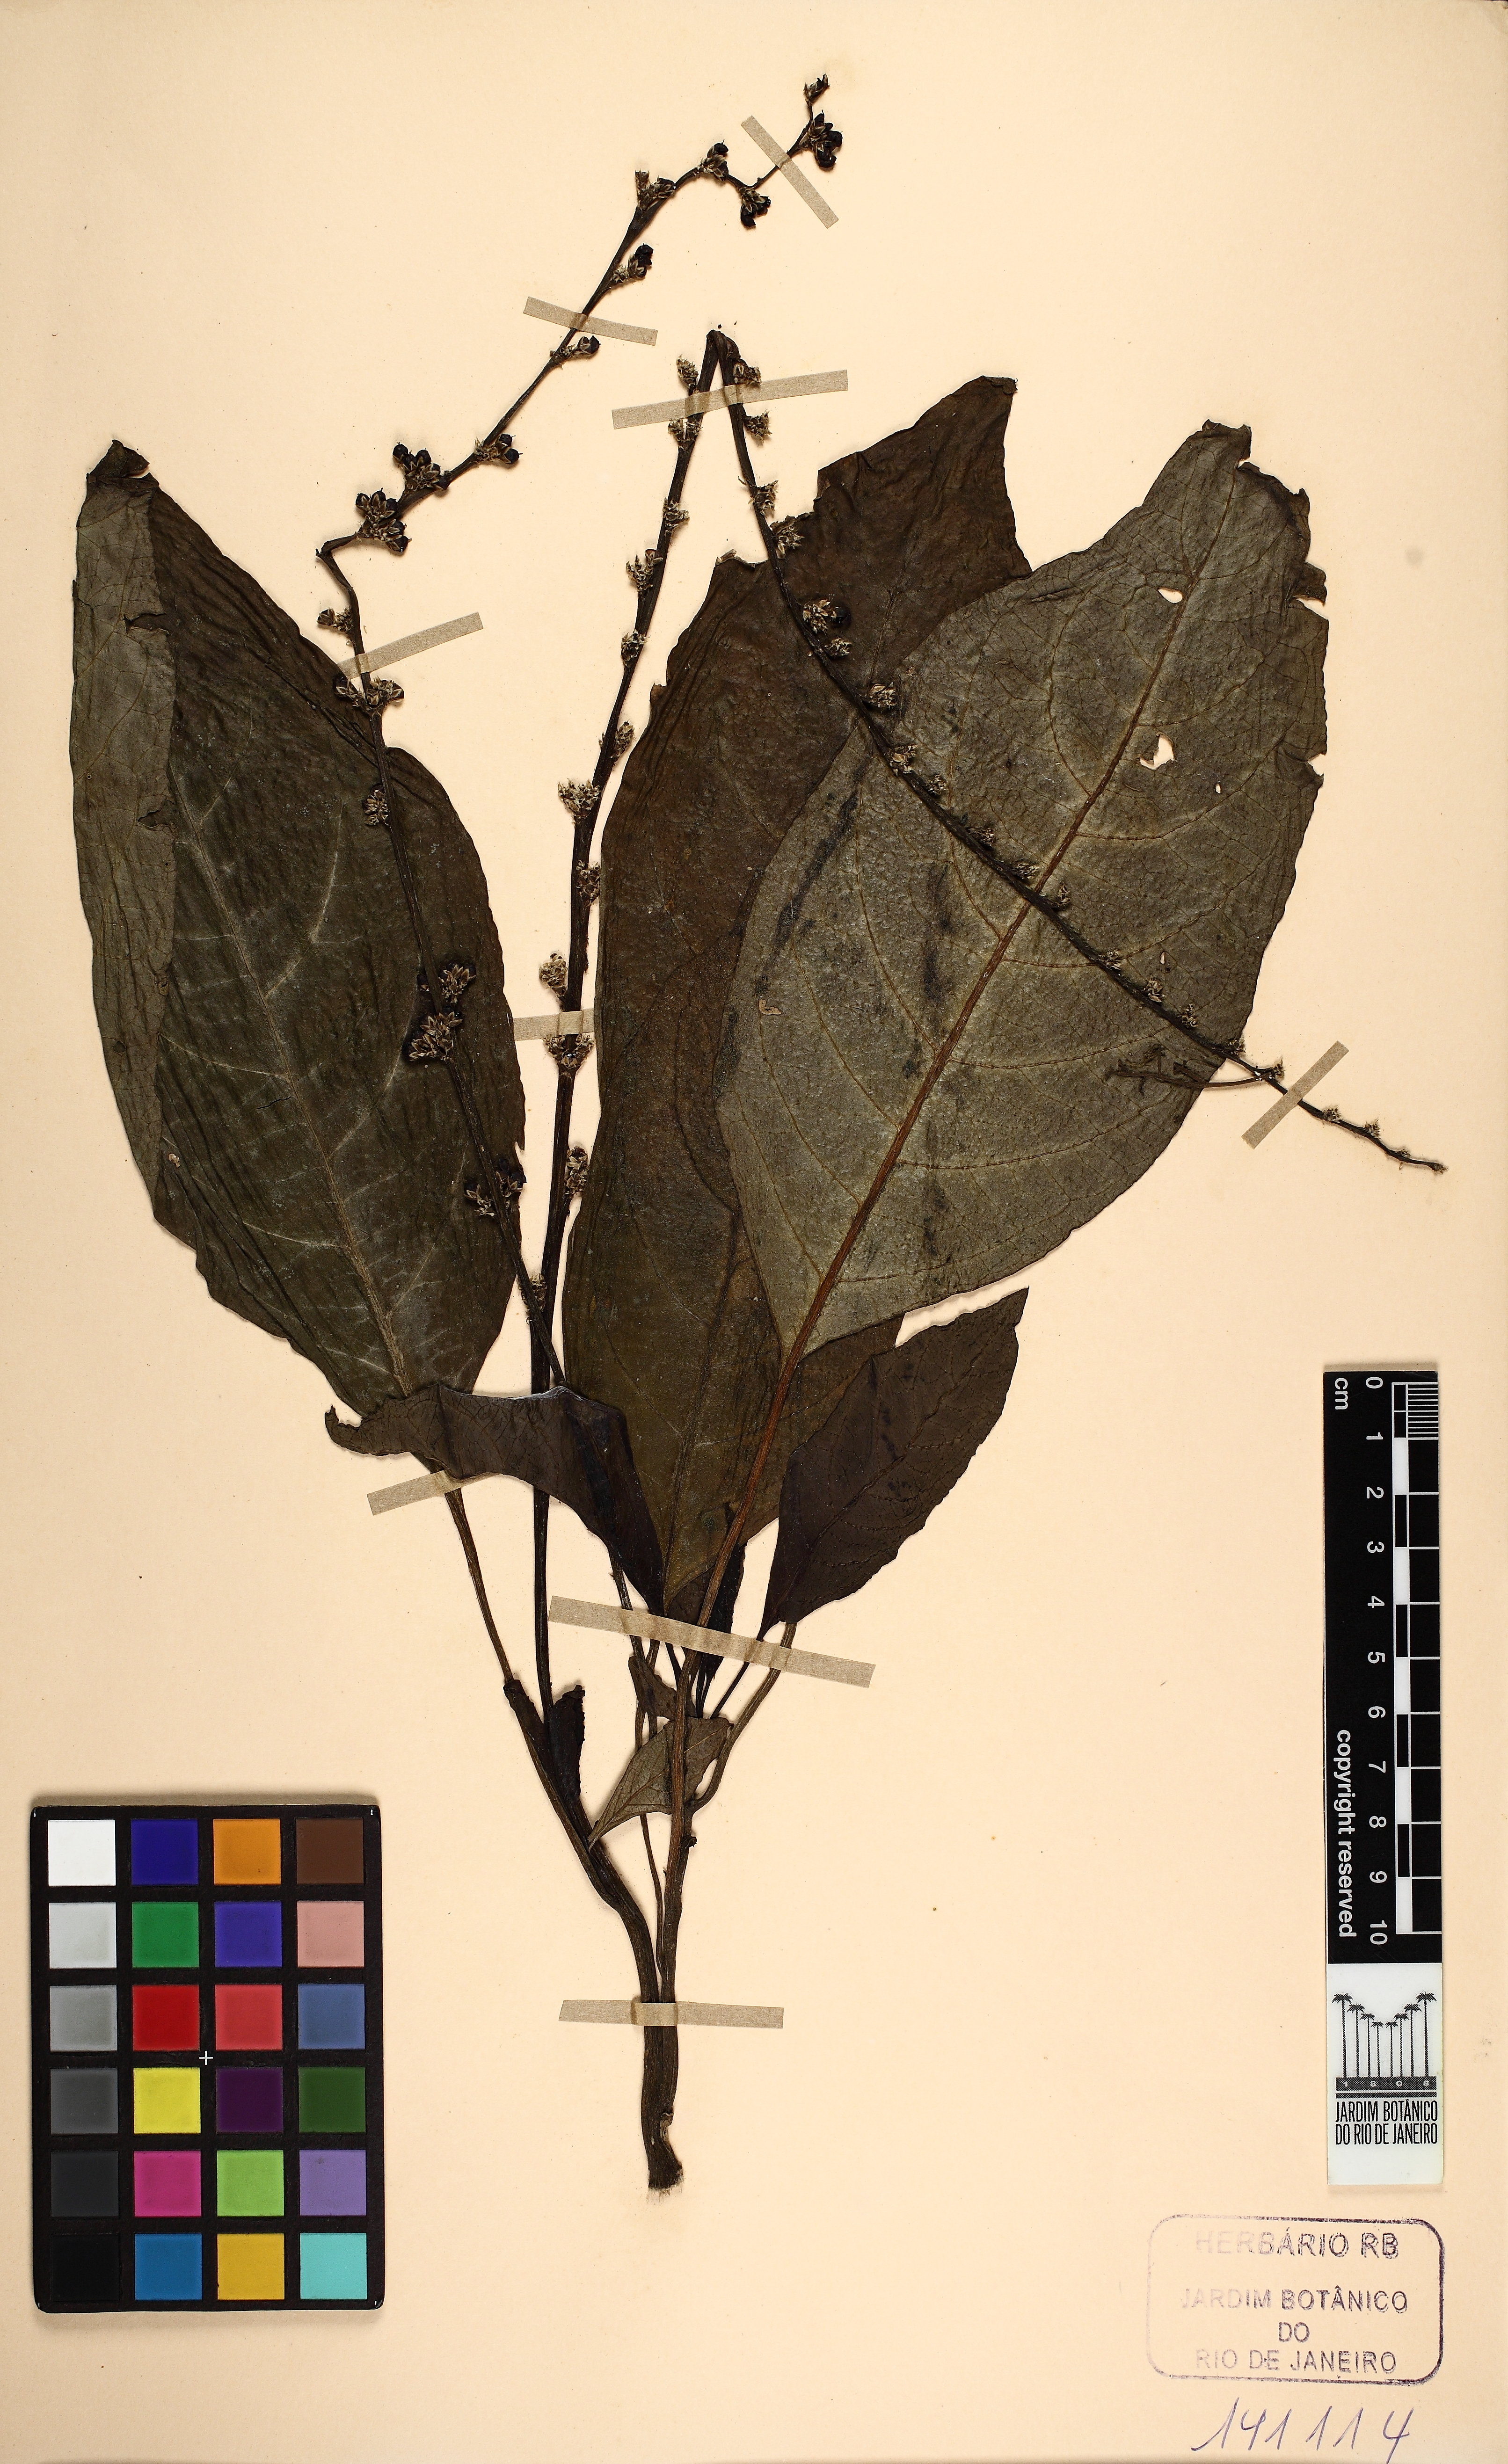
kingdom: Plantae
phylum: Tracheophyta
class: Magnoliopsida
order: Caryophyllales
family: Amaranthaceae
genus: Celosia
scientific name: Celosia grandifolia
